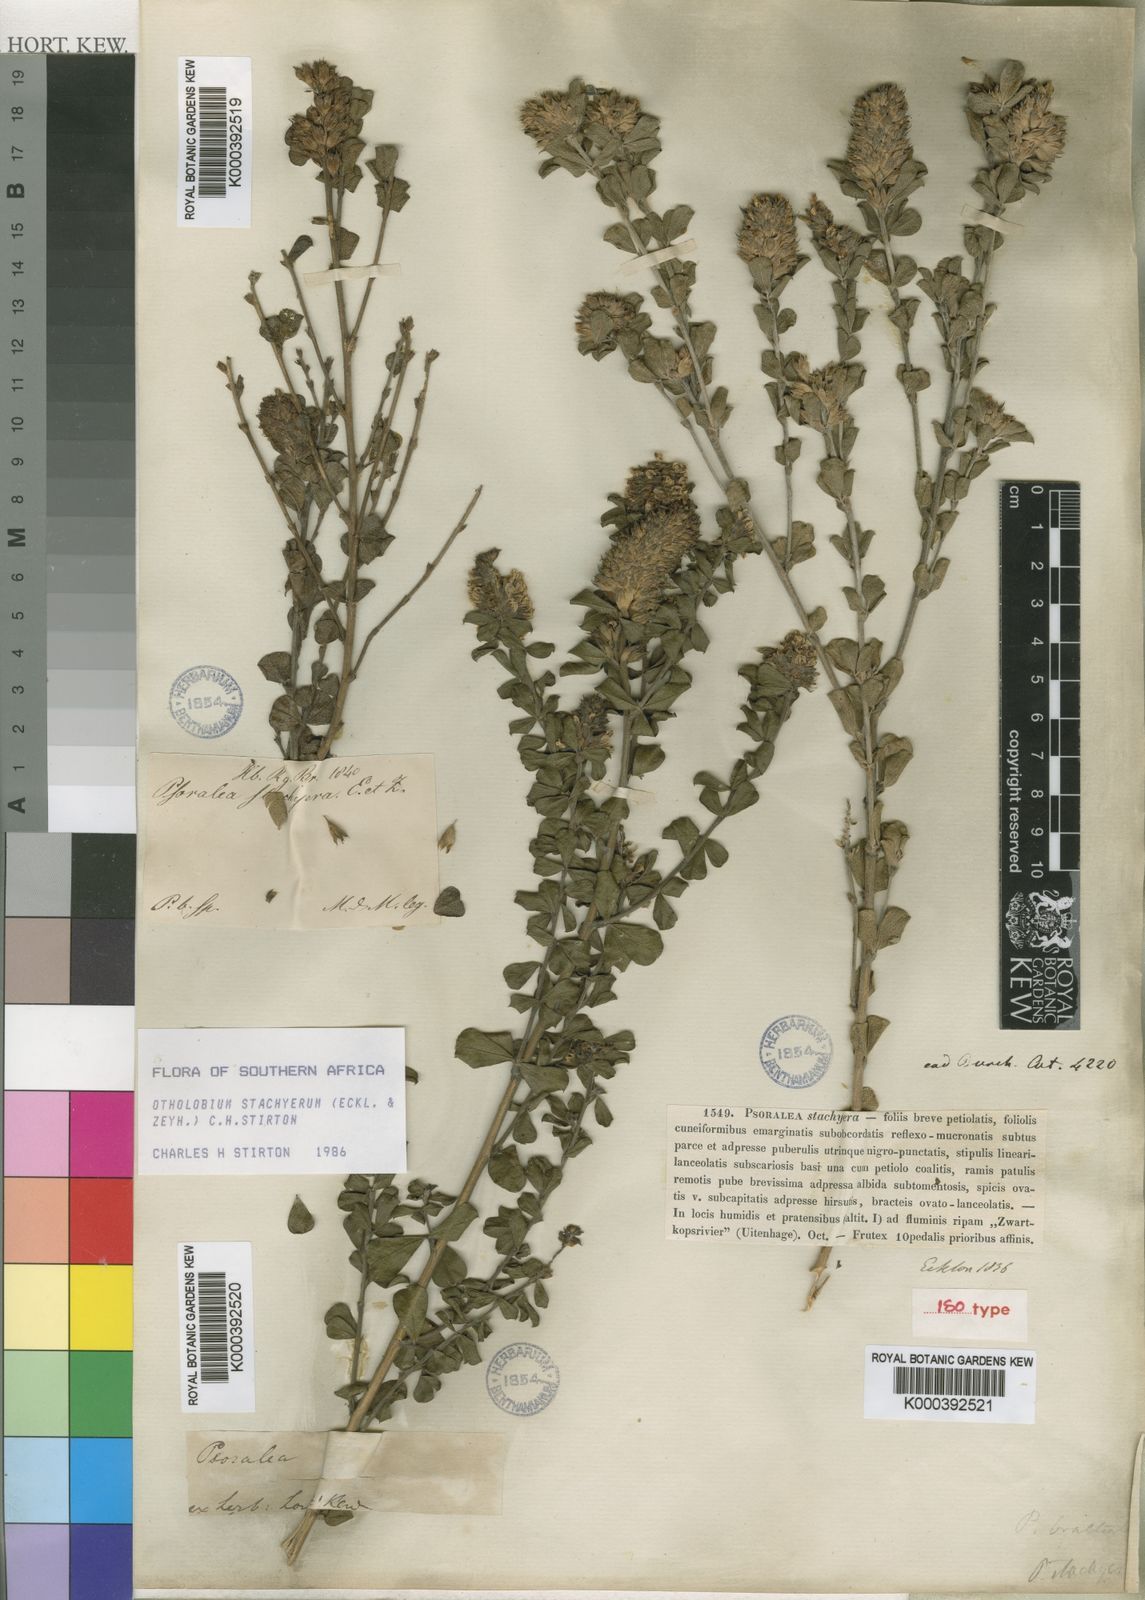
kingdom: Plantae
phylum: Tracheophyta
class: Magnoliopsida
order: Fabales
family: Fabaceae
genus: Psoralea
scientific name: Psoralea stachyera
